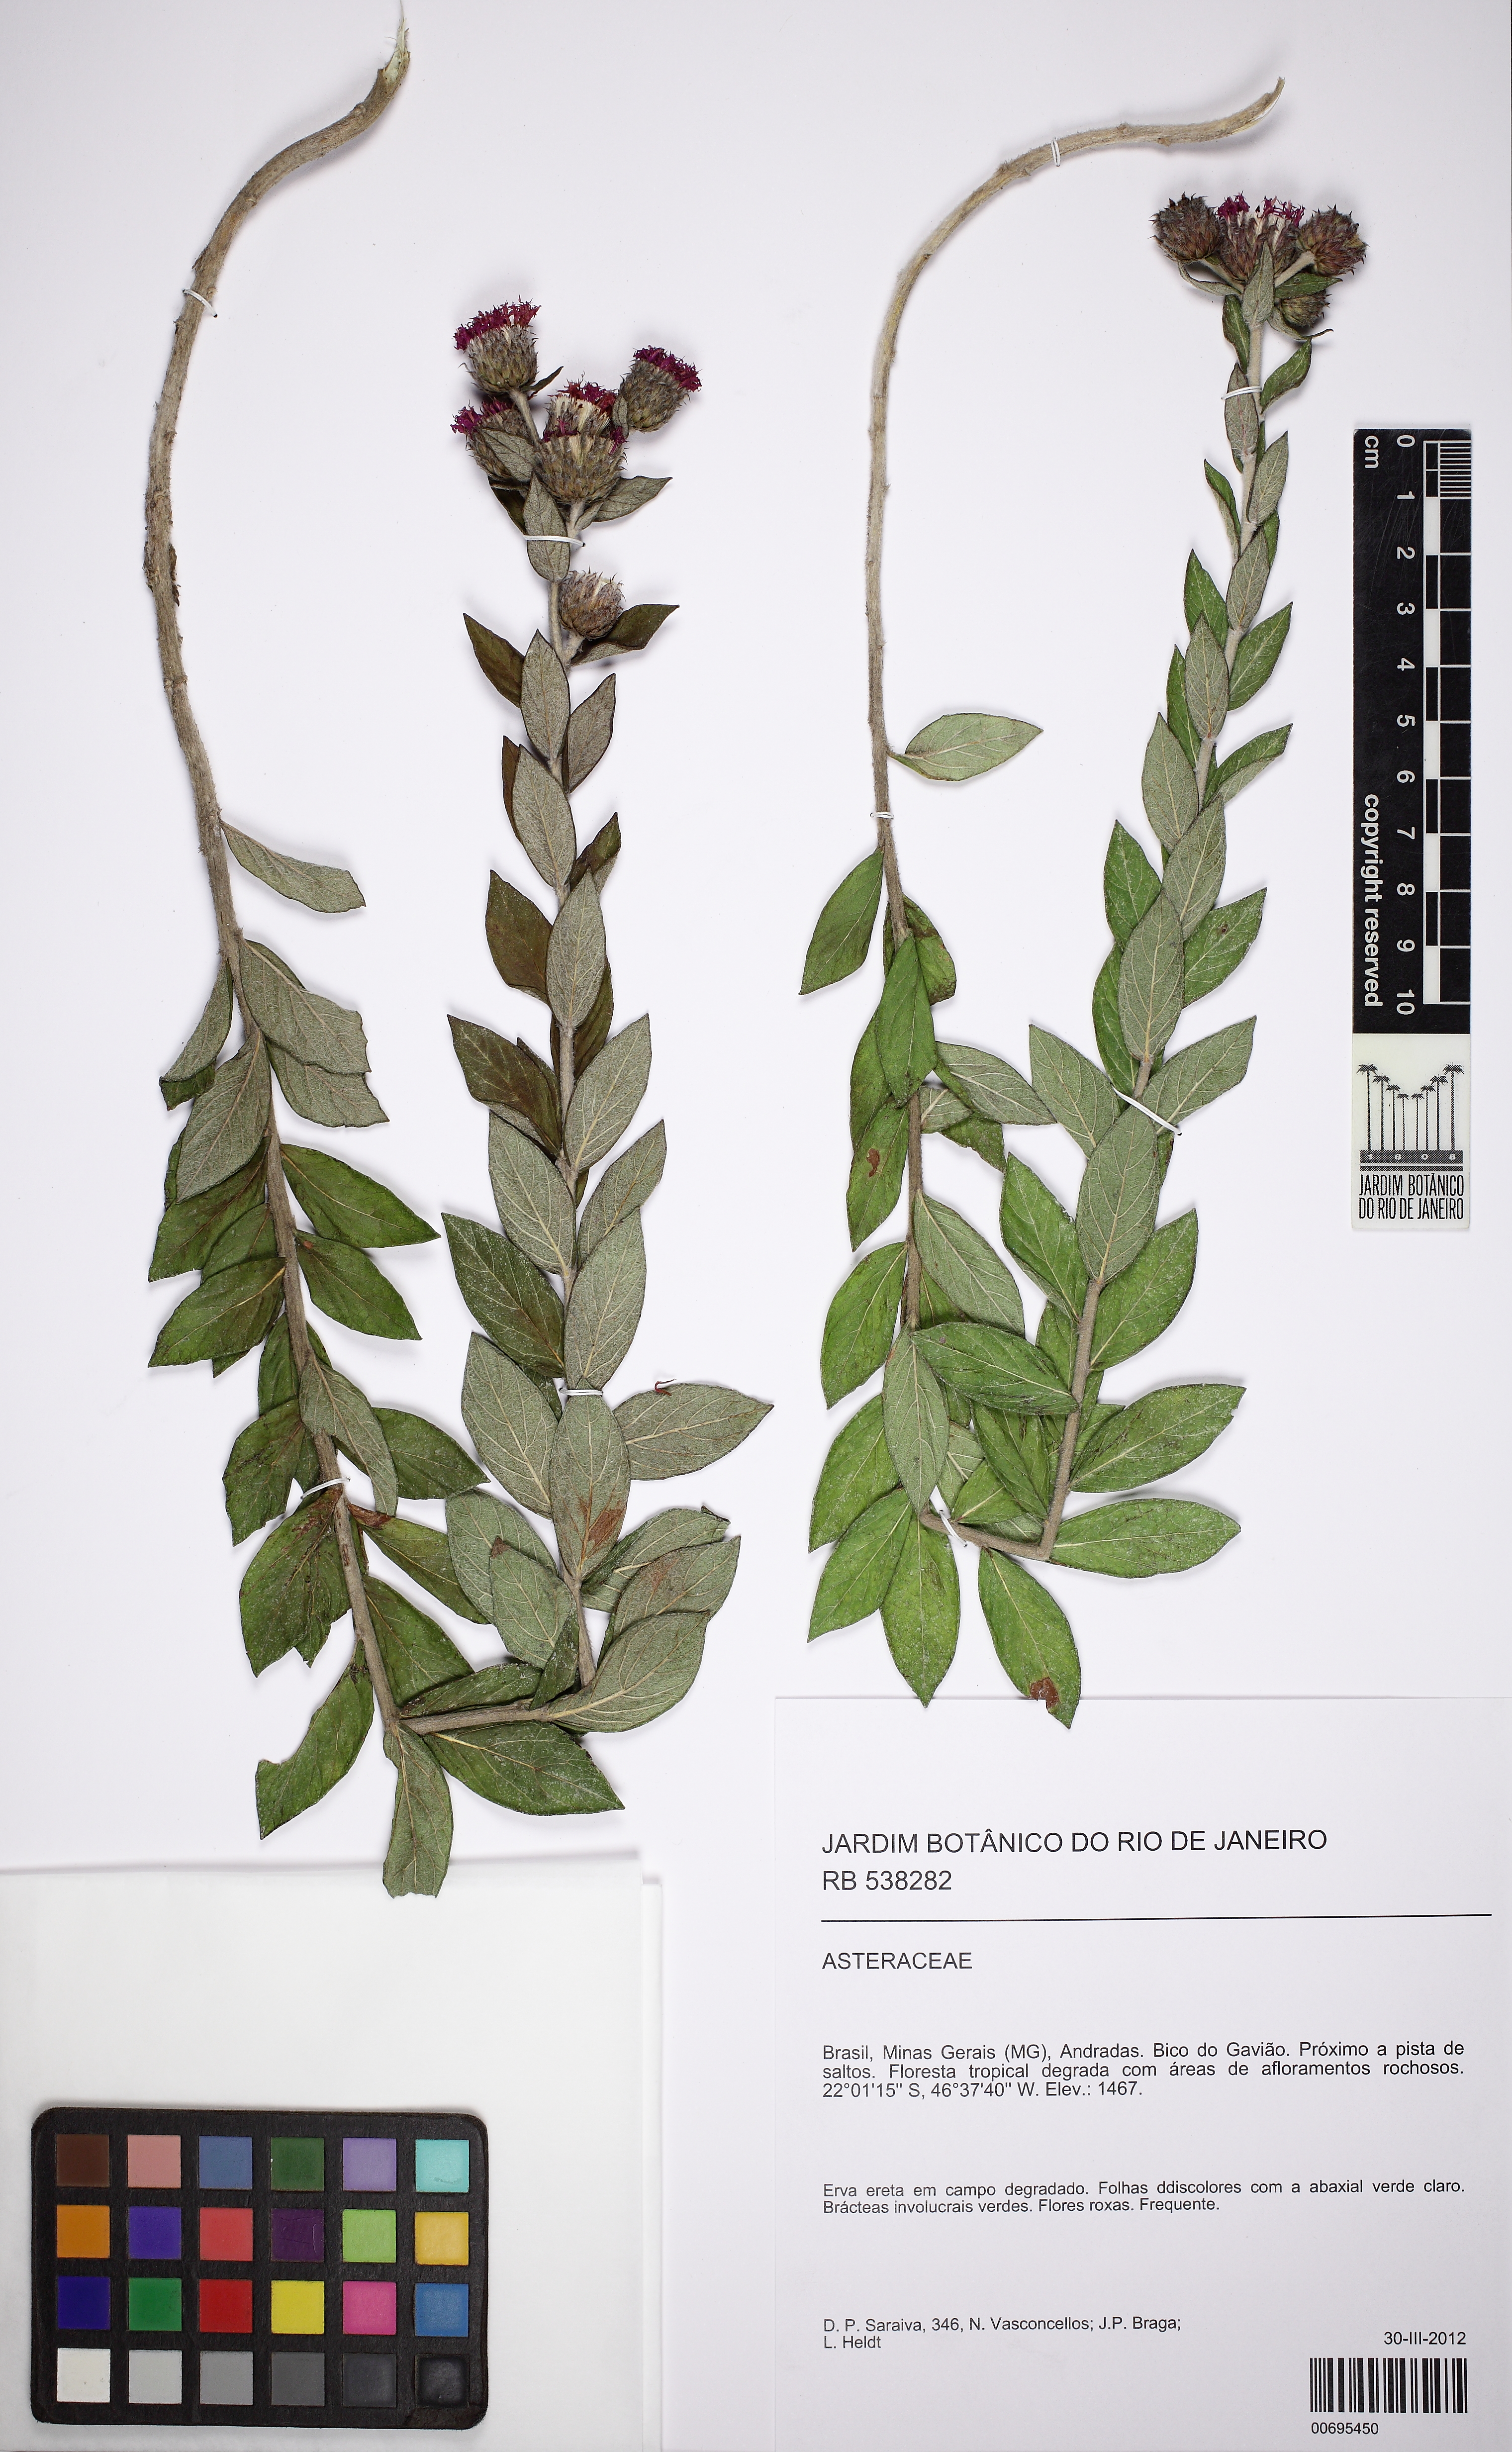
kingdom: Plantae
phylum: Tracheophyta
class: Magnoliopsida
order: Asterales
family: Asteraceae
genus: Lessingianthus
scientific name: Lessingianthus
